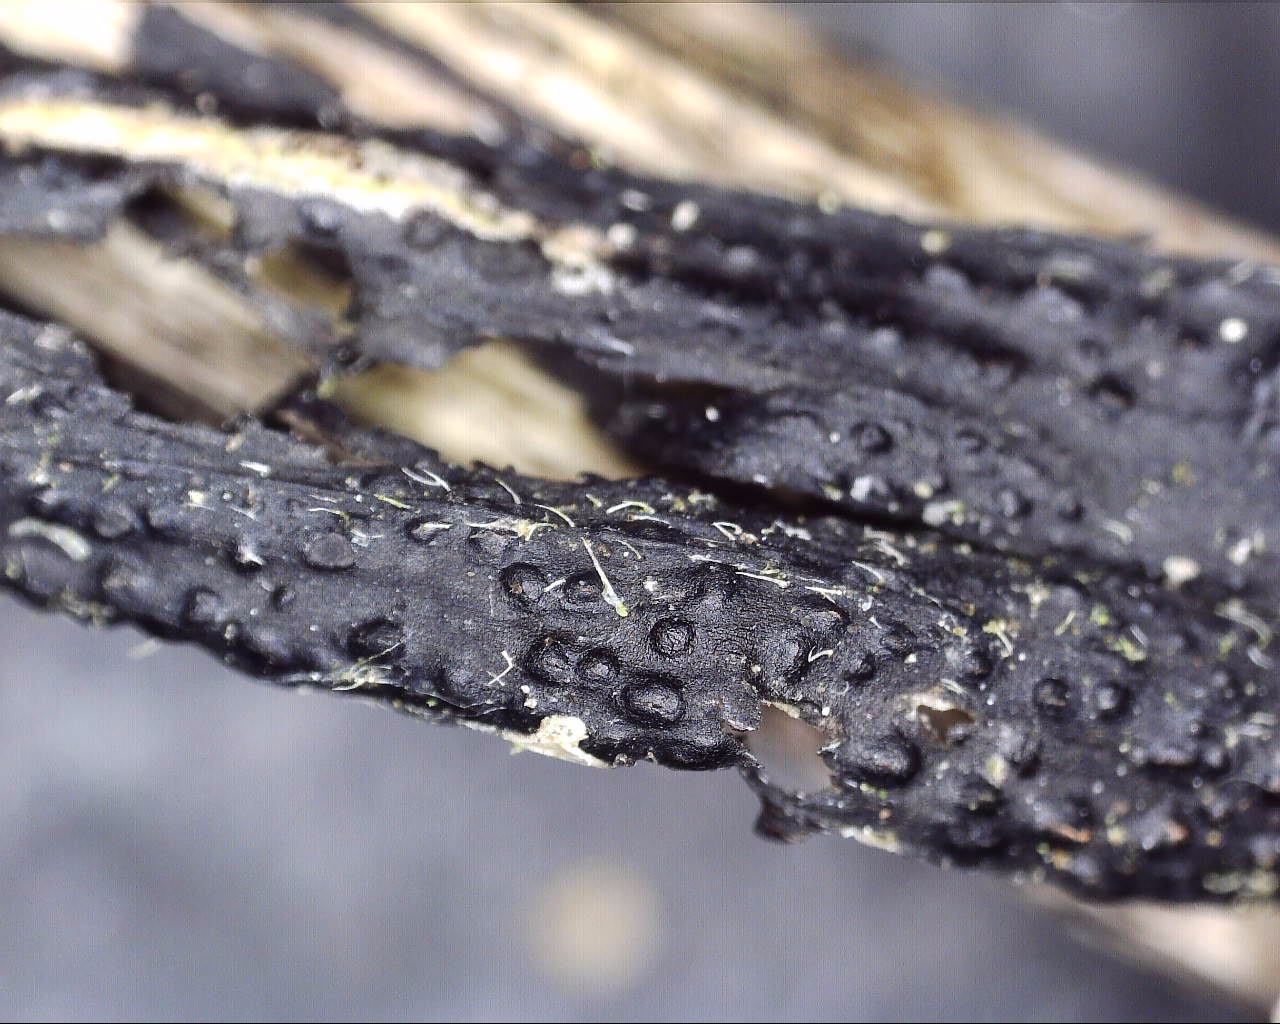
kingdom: Fungi
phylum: Ascomycota
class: Sordariomycetes
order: Diaporthales
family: Diaporthaceae
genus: Diaporthopsis
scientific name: Diaporthopsis urticae
